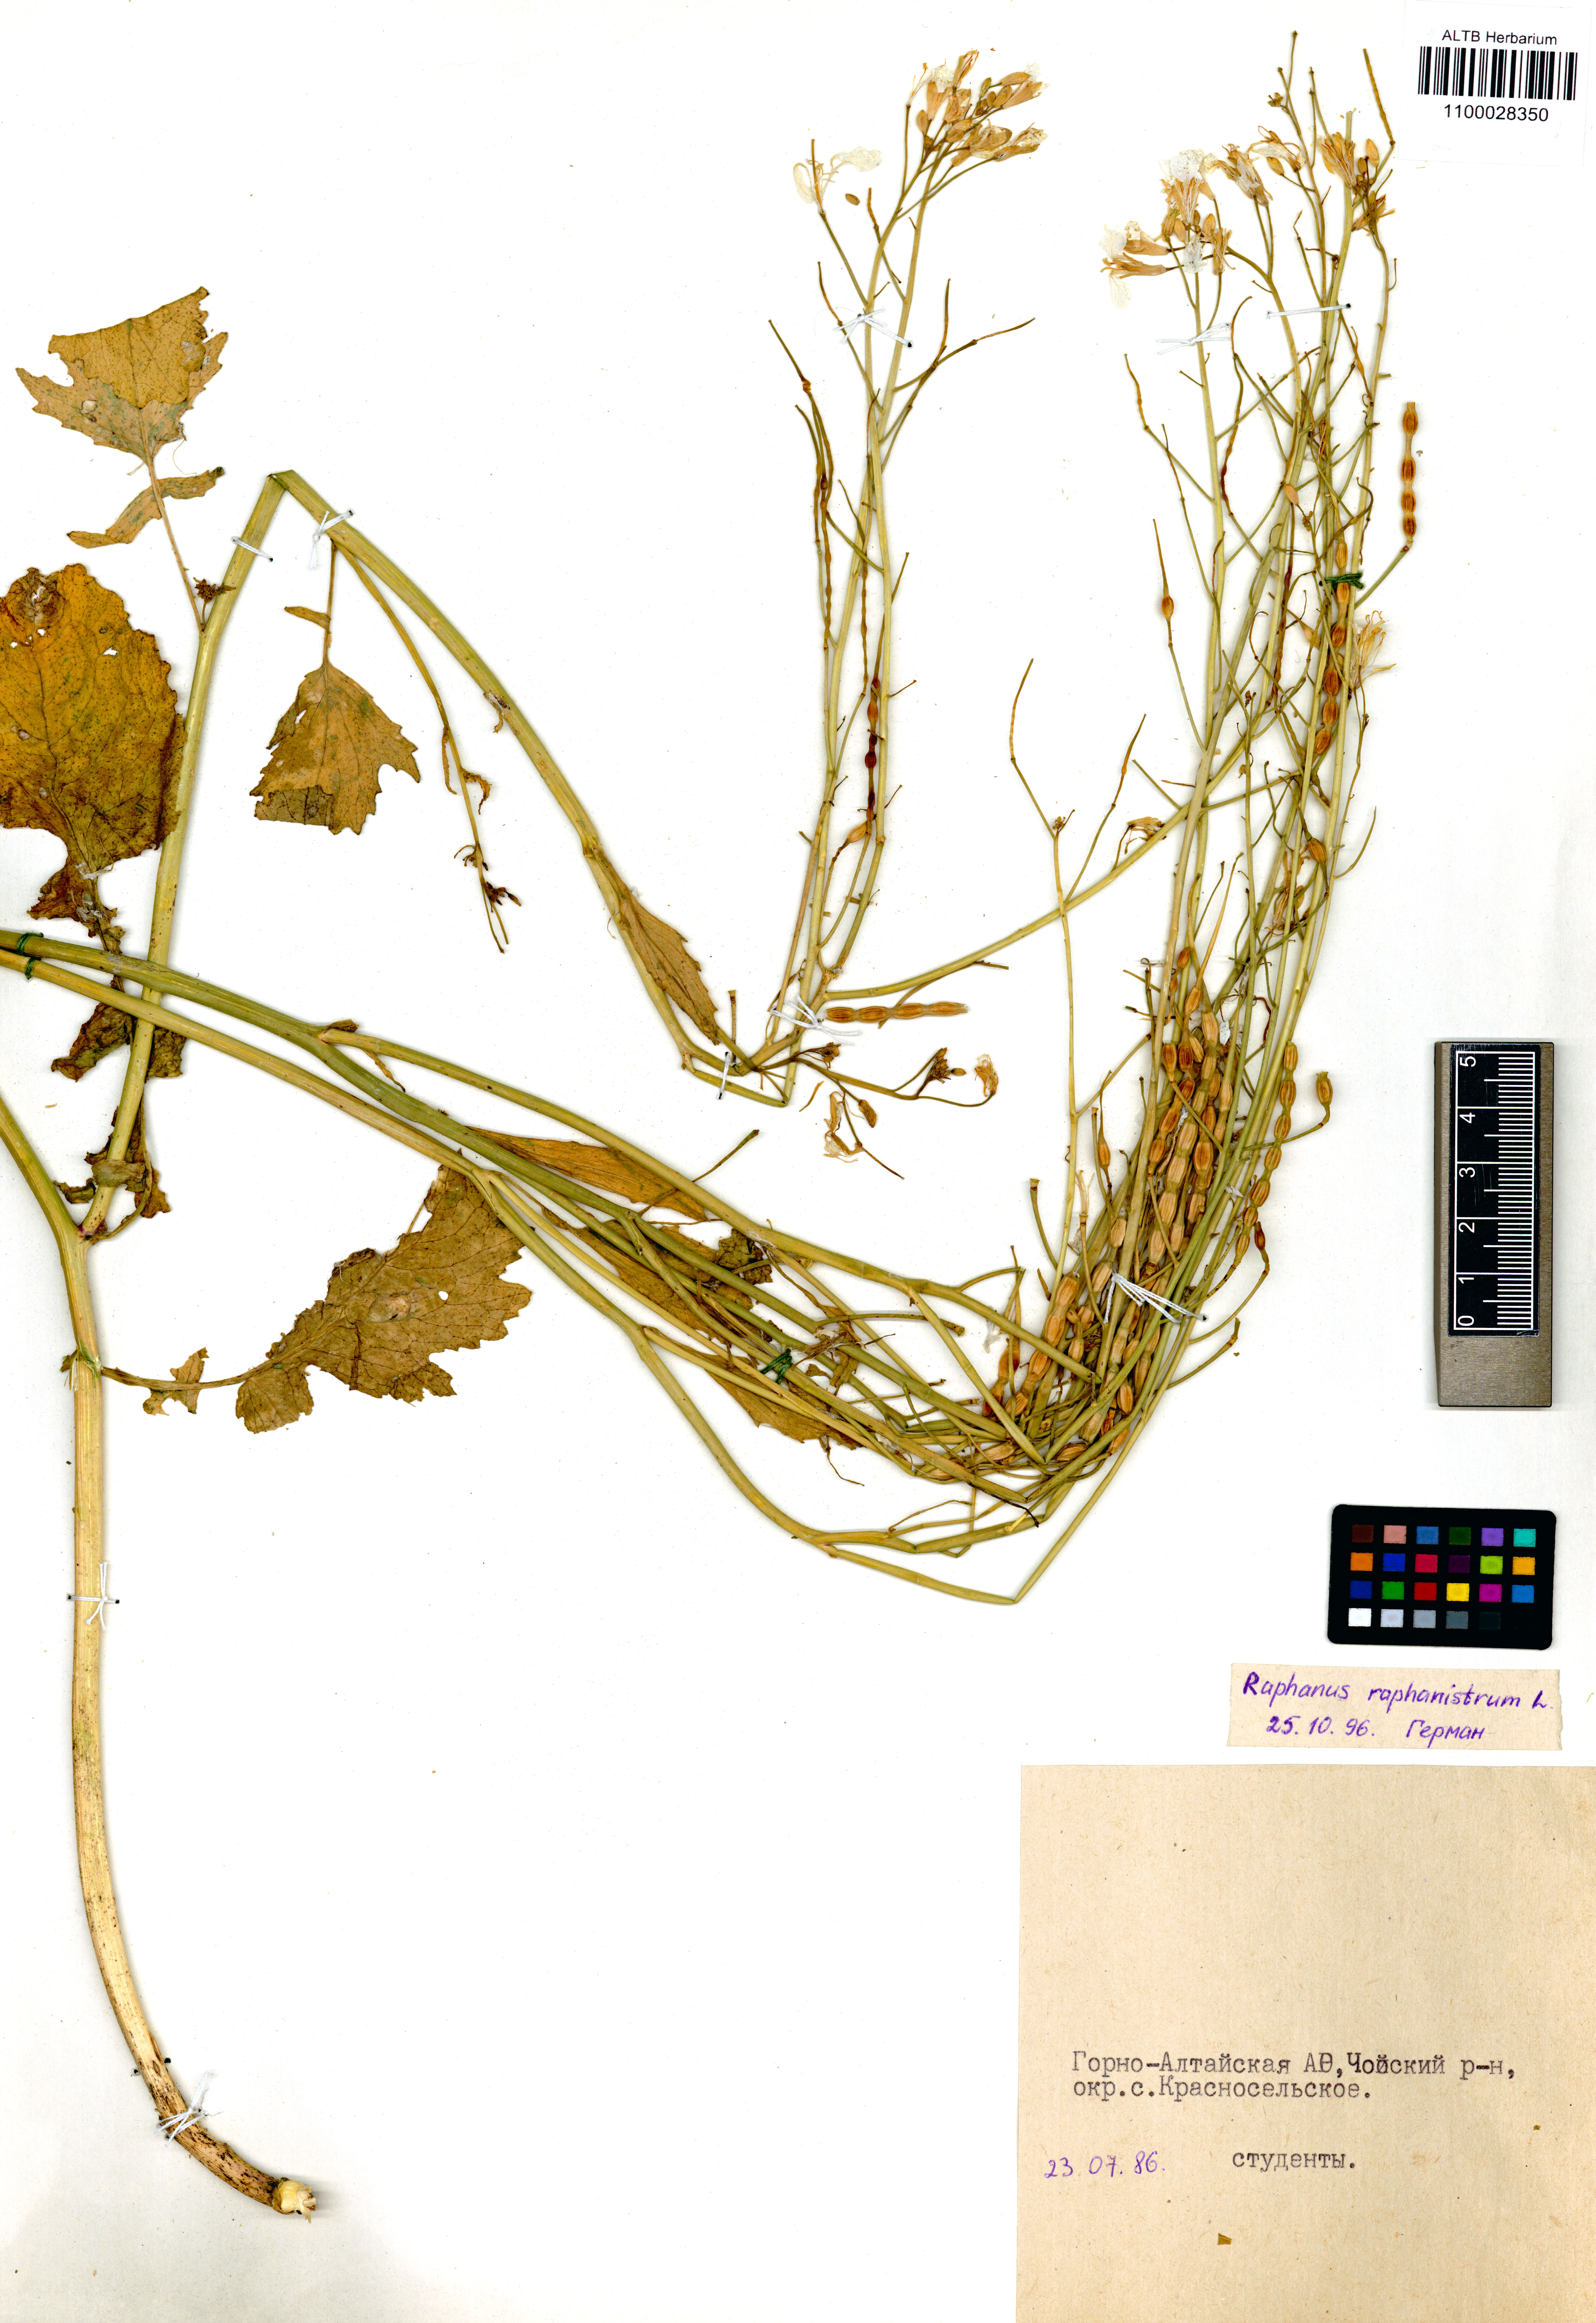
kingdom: Plantae
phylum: Tracheophyta
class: Magnoliopsida
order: Brassicales
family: Brassicaceae
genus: Raphanus
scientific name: Raphanus raphanistrum
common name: Wild radish
